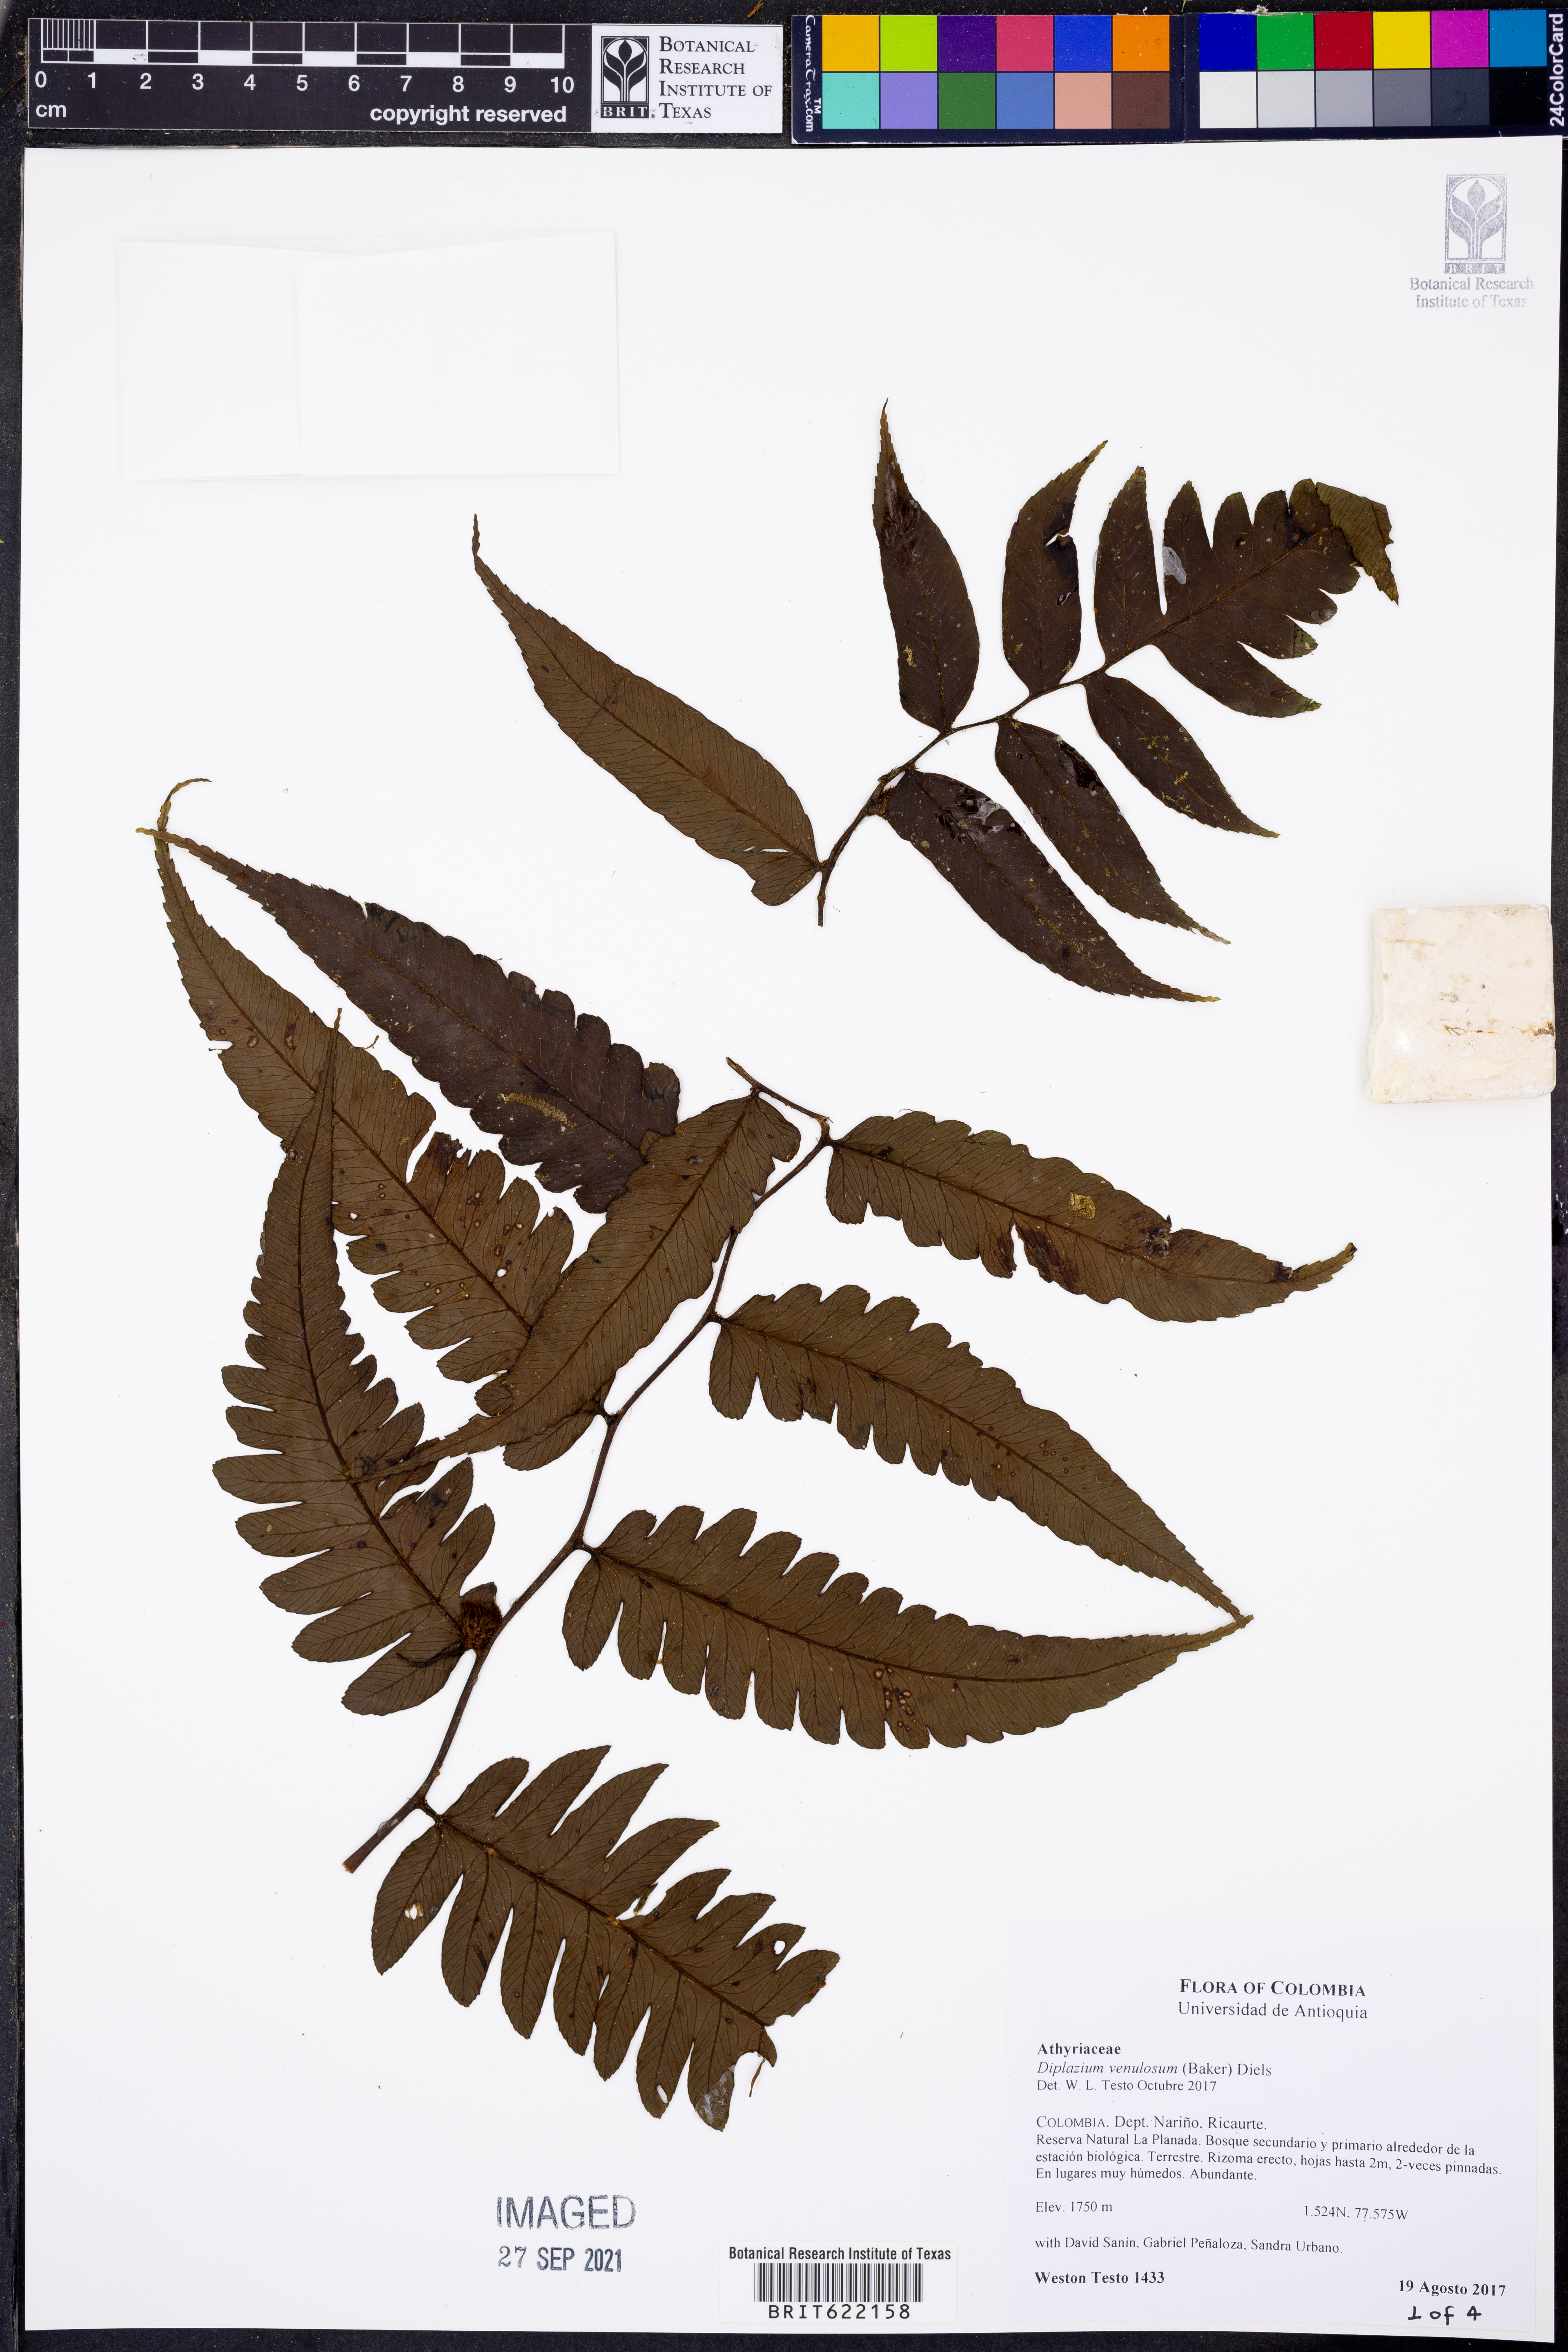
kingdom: Plantae
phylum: Tracheophyta
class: Polypodiopsida
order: Polypodiales
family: Athyriaceae
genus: Diplazium
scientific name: Diplazium venulosum
